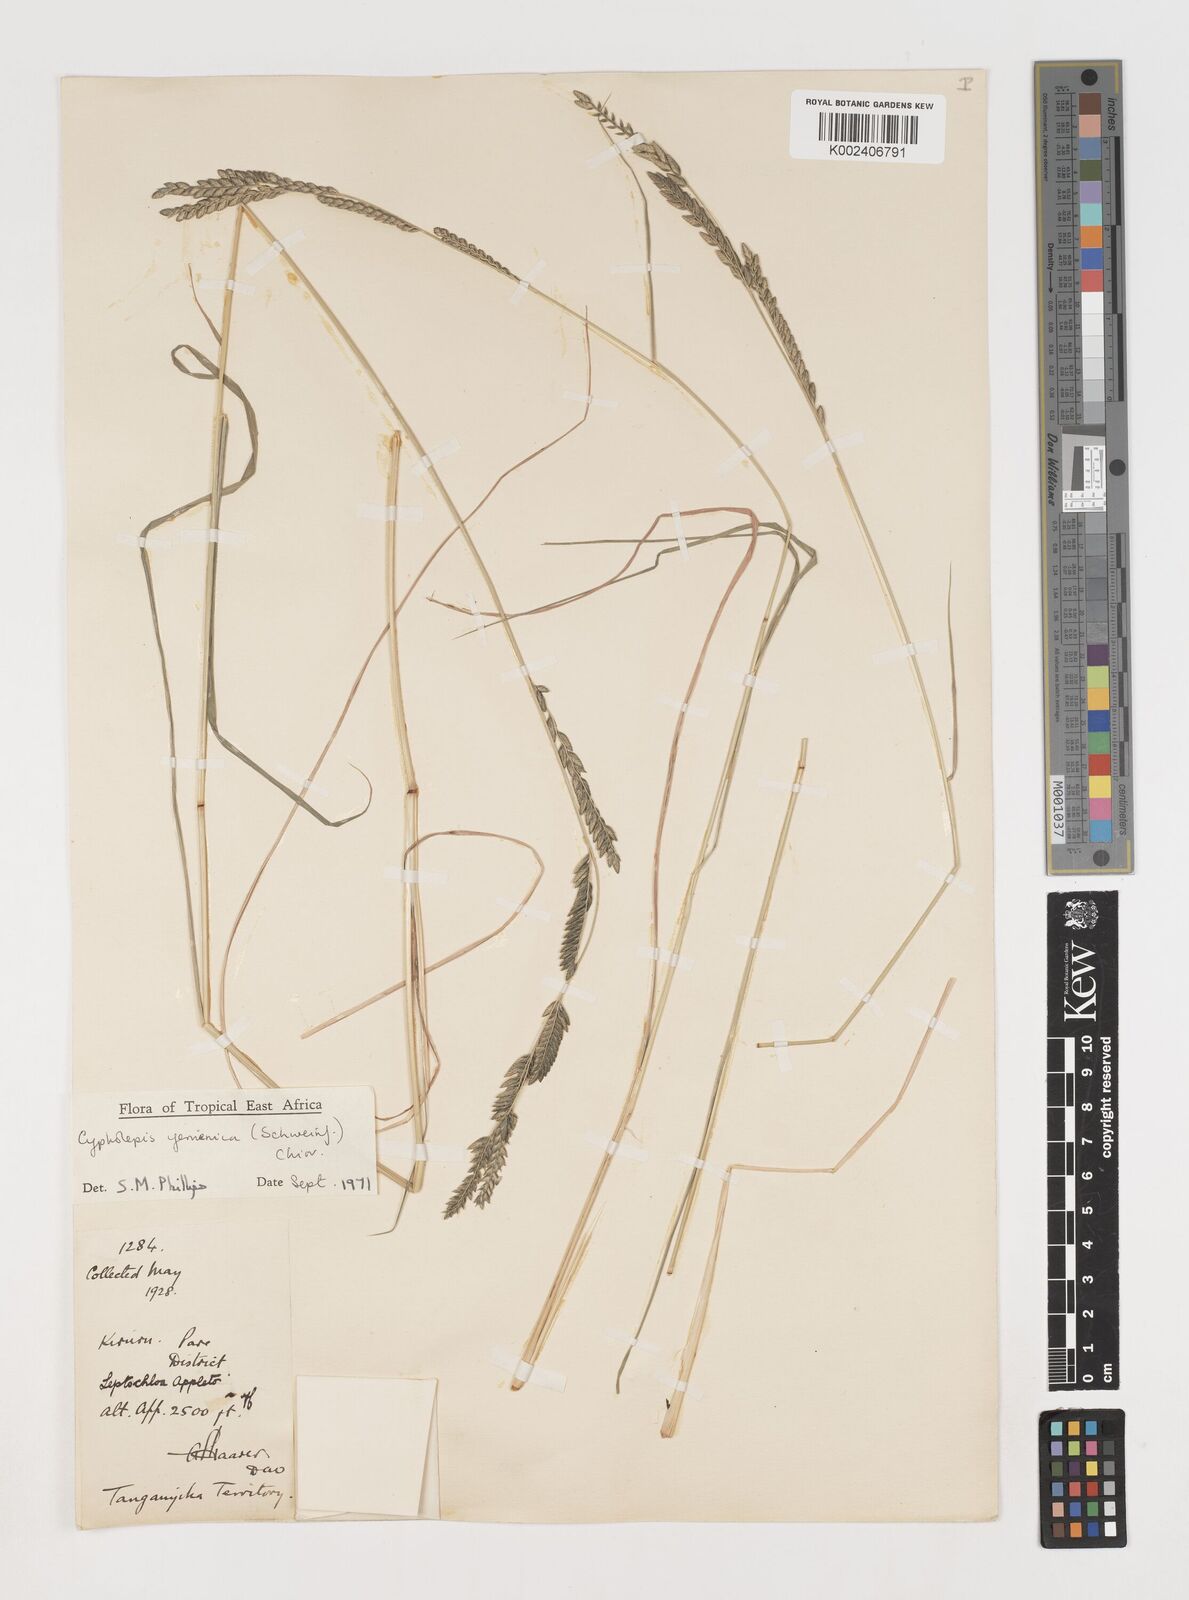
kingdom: Plantae
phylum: Tracheophyta
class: Liliopsida
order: Poales
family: Poaceae
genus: Disakisperma
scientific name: Disakisperma yemenicum
